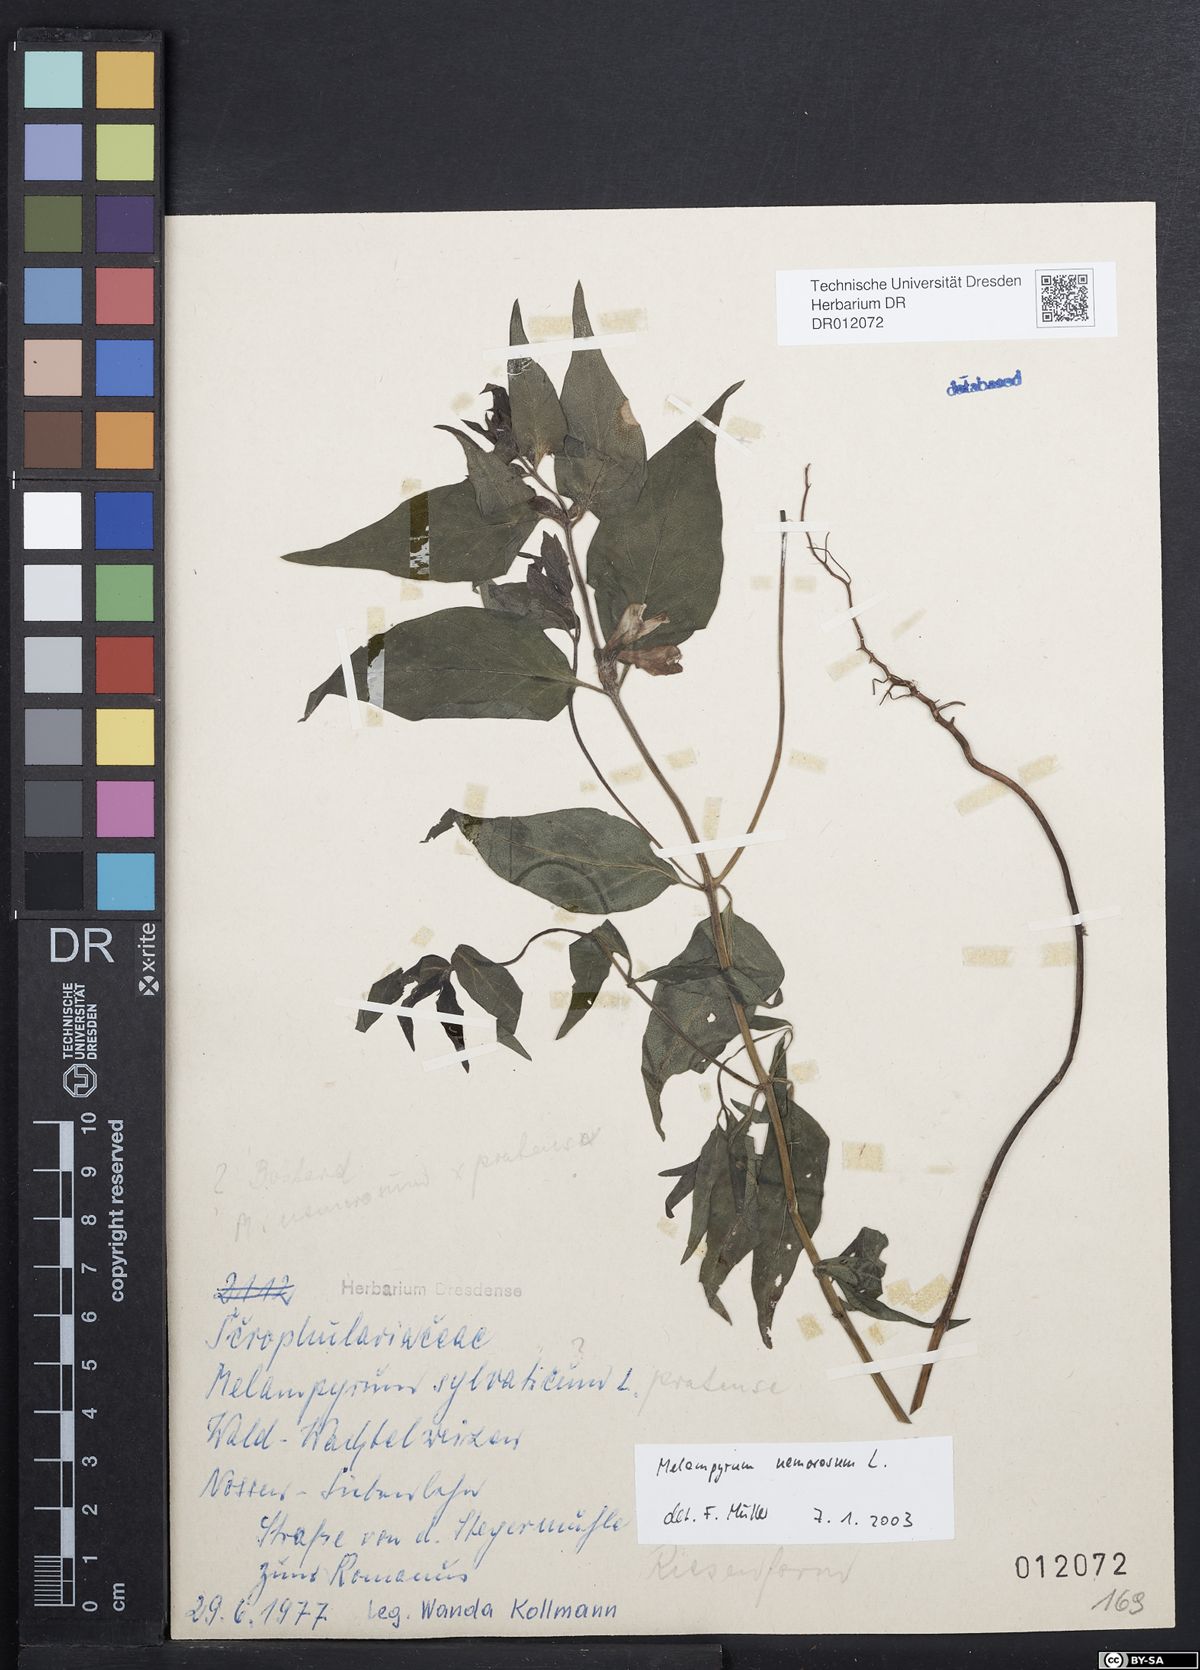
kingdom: Plantae
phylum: Tracheophyta
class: Magnoliopsida
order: Lamiales
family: Orobanchaceae
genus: Melampyrum
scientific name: Melampyrum nemorosum
